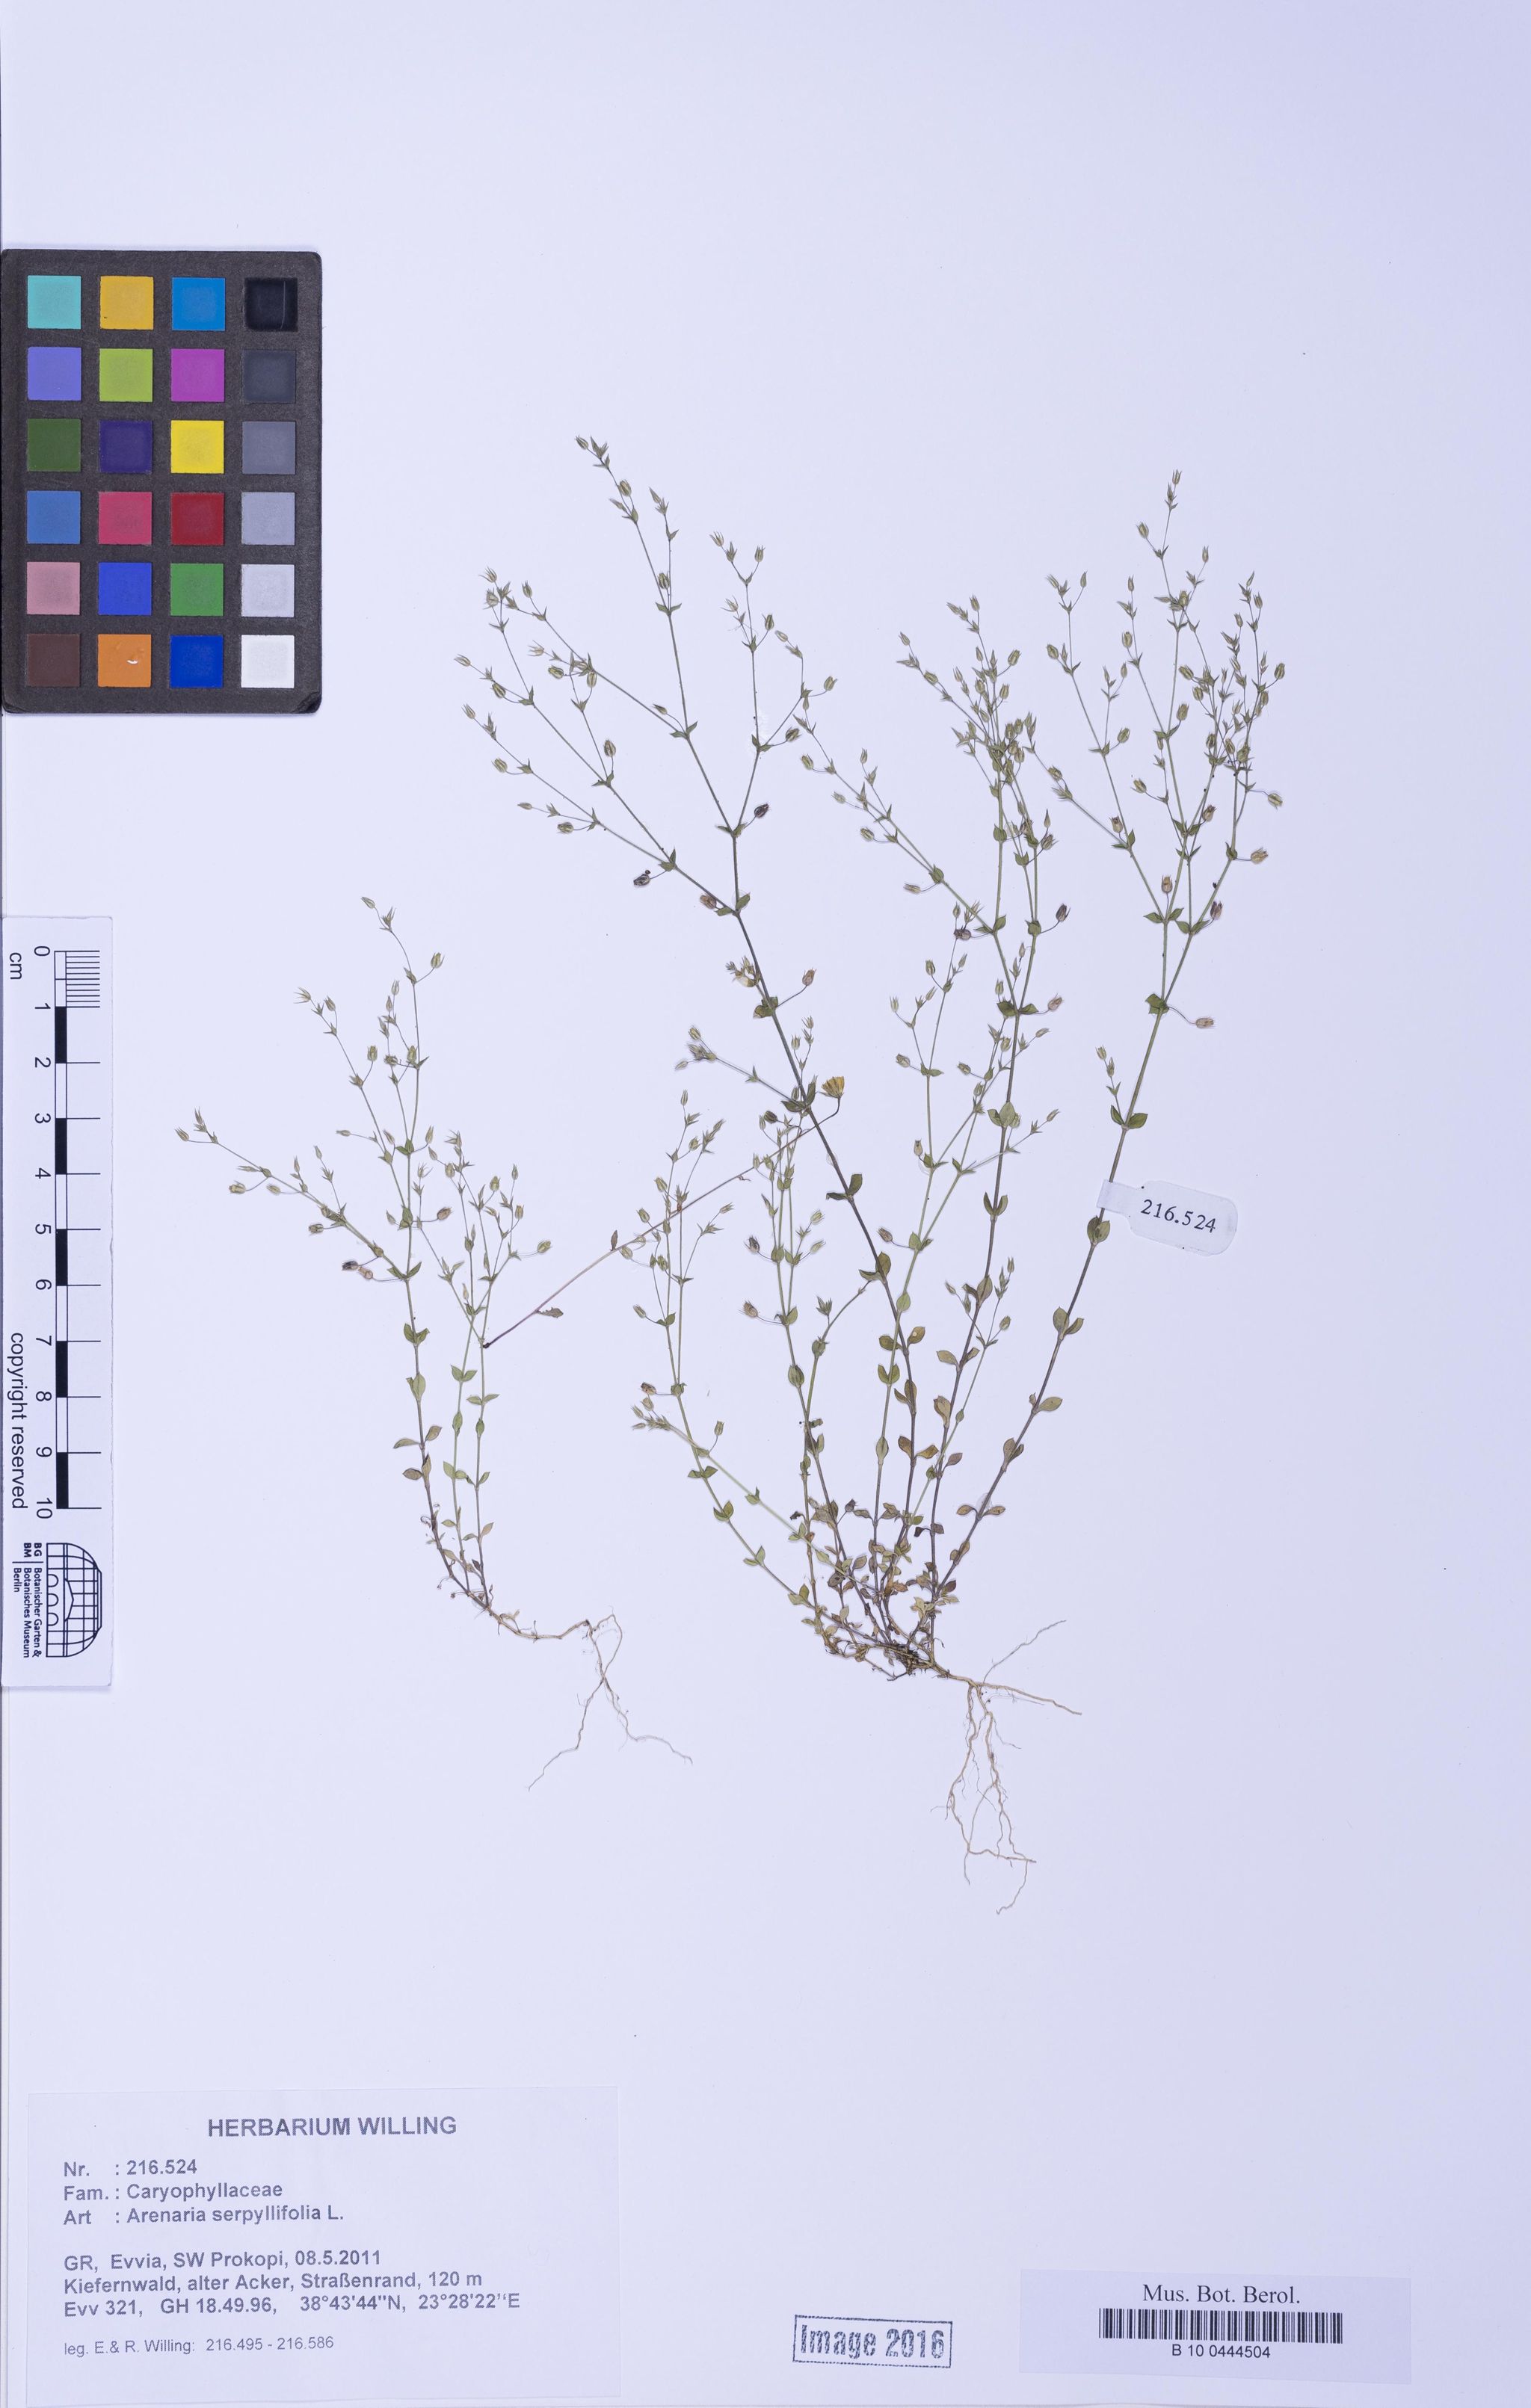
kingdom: Plantae
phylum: Tracheophyta
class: Magnoliopsida
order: Caryophyllales
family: Caryophyllaceae
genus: Arenaria
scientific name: Arenaria serpyllifolia
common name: Thyme-leaved sandwort
